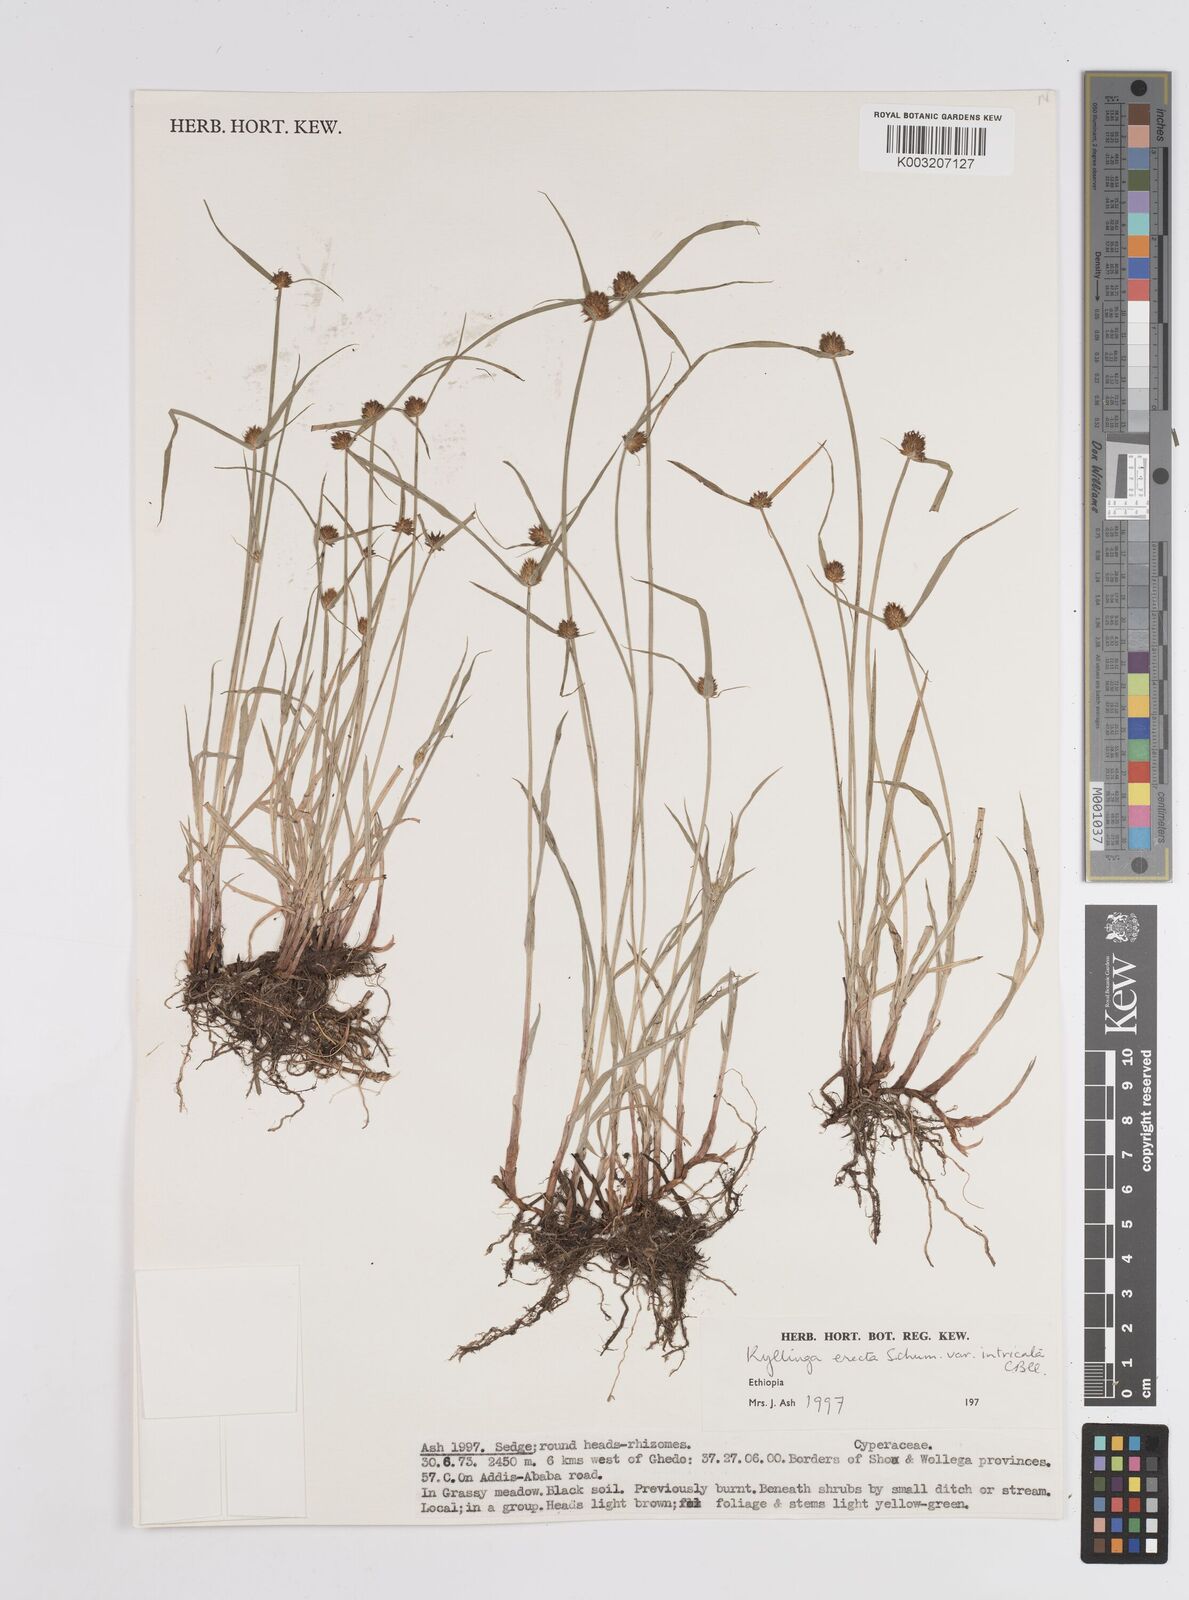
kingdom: Plantae
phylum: Tracheophyta
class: Liliopsida
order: Poales
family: Cyperaceae
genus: Cyperus
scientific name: Cyperus
